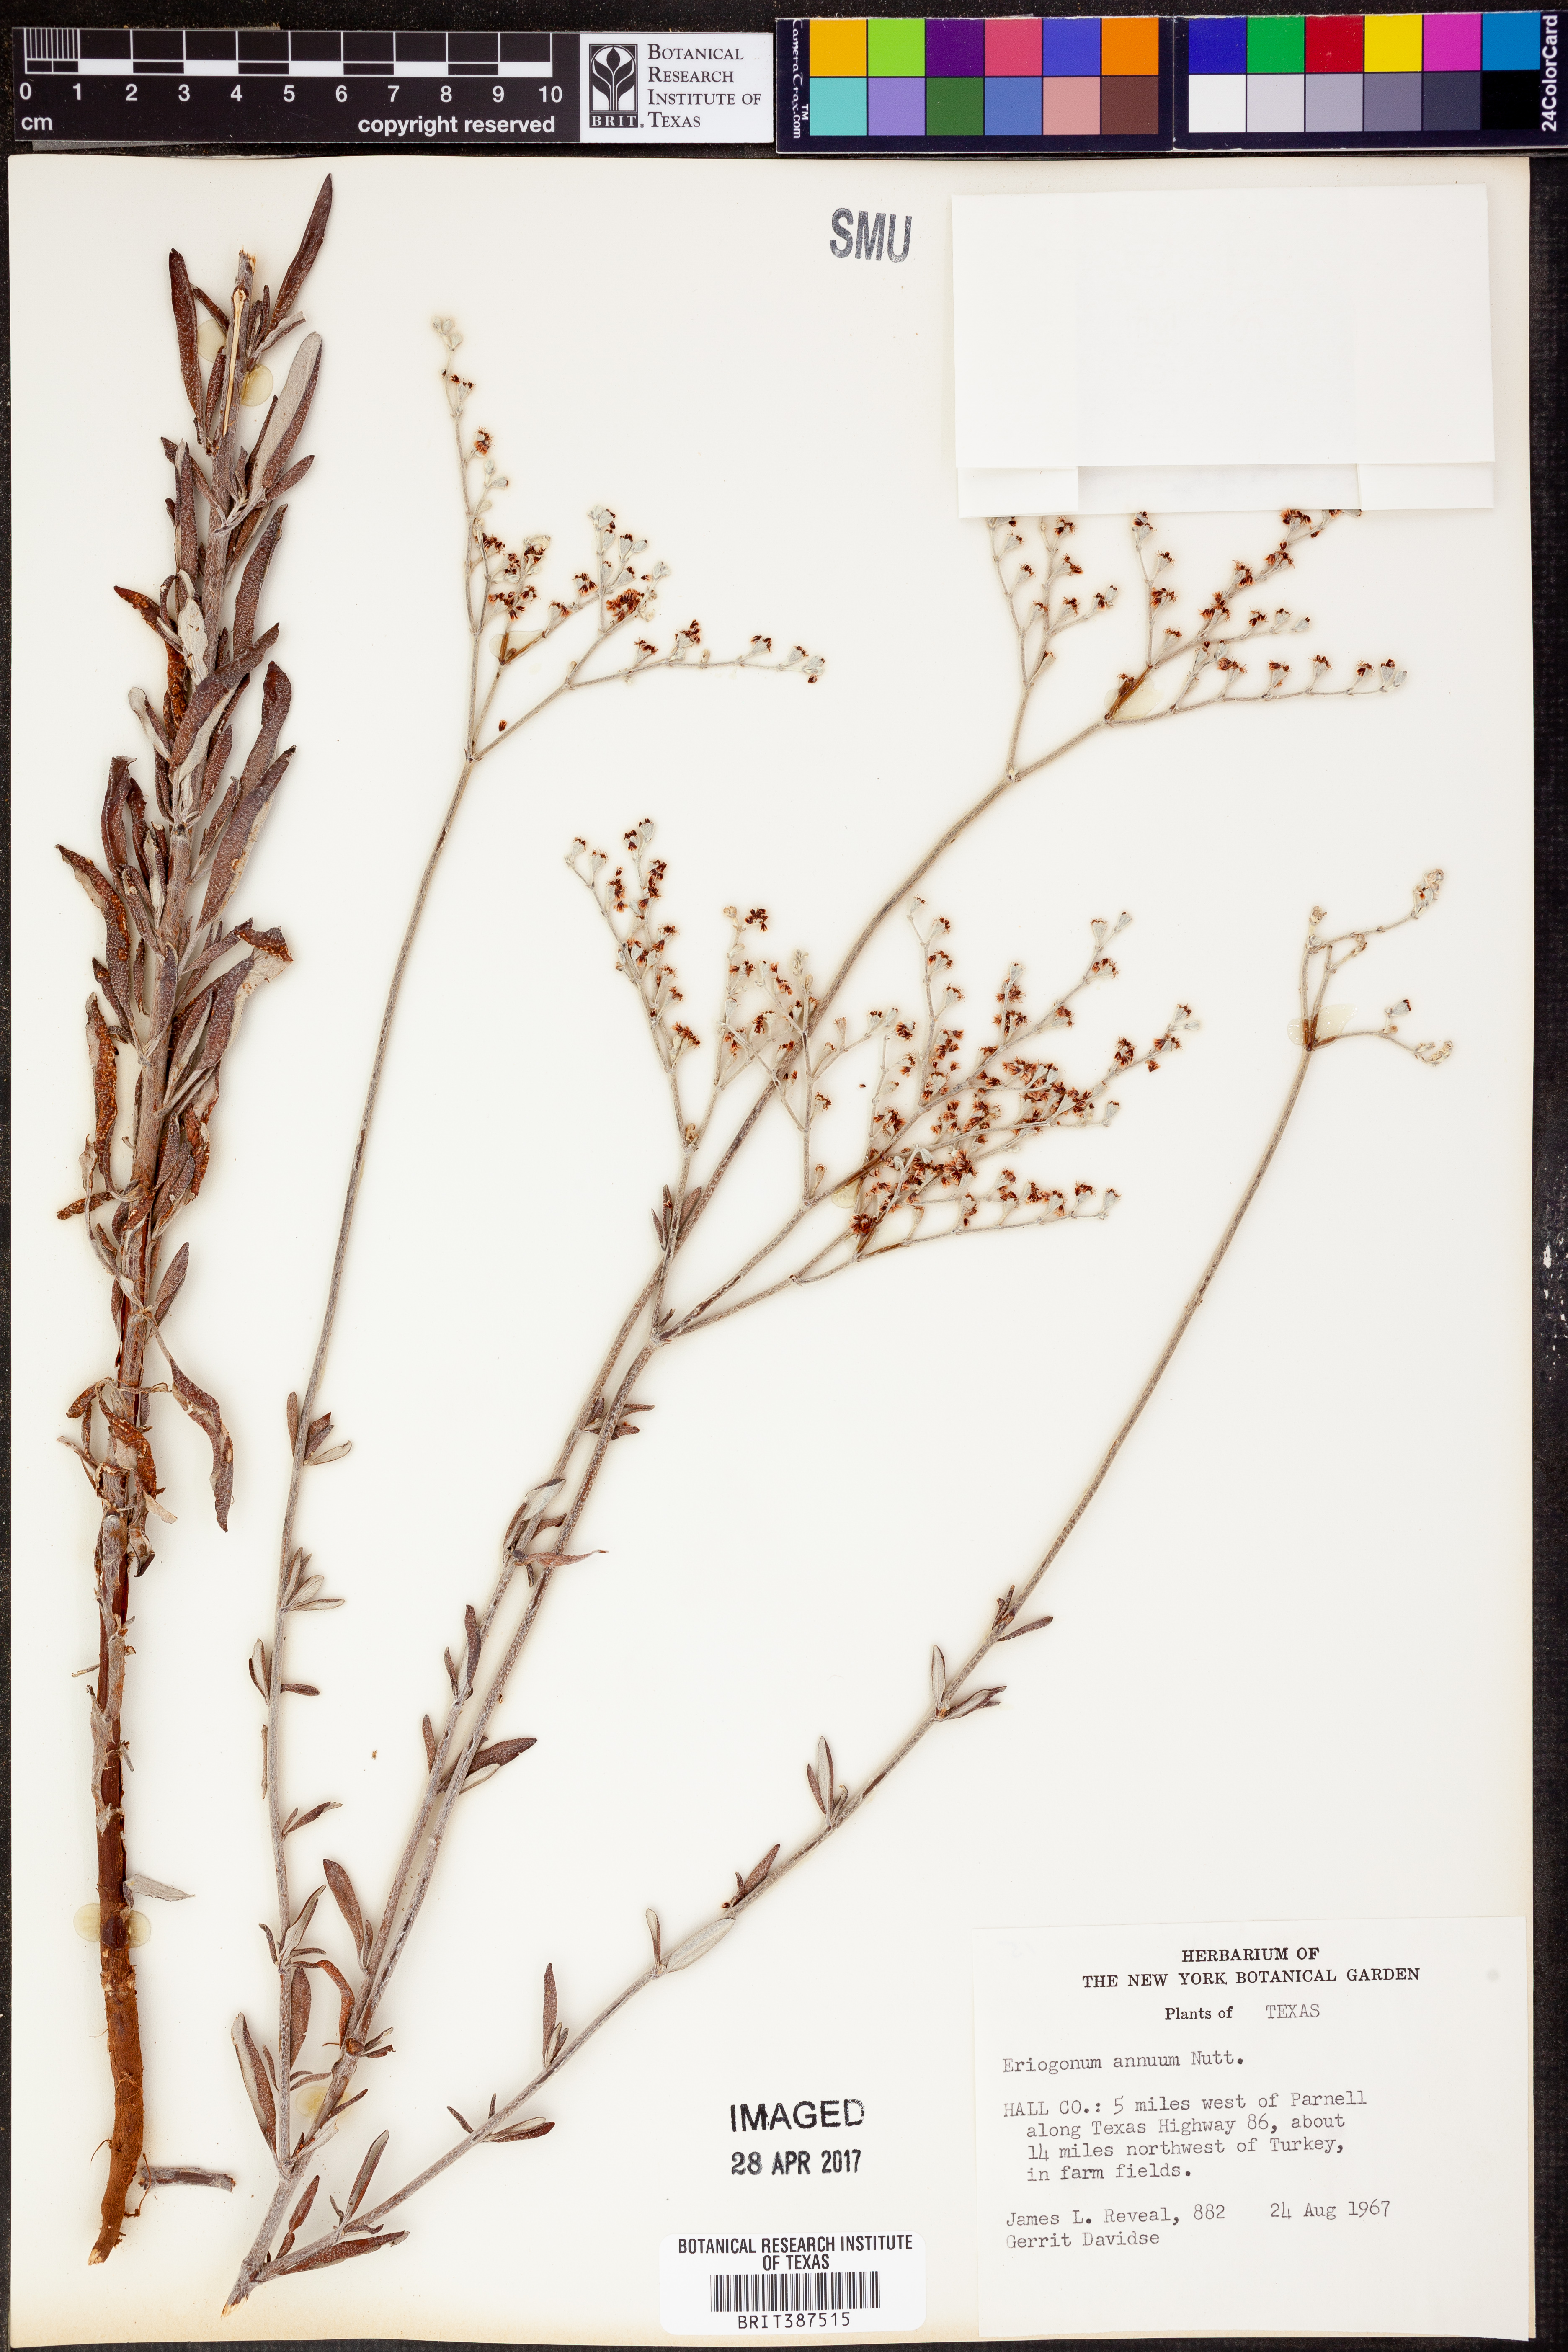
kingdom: Plantae
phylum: Tracheophyta
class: Magnoliopsida
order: Caryophyllales
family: Polygonaceae
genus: Eriogonum
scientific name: Eriogonum annuum
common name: Annual wild buckwheat
